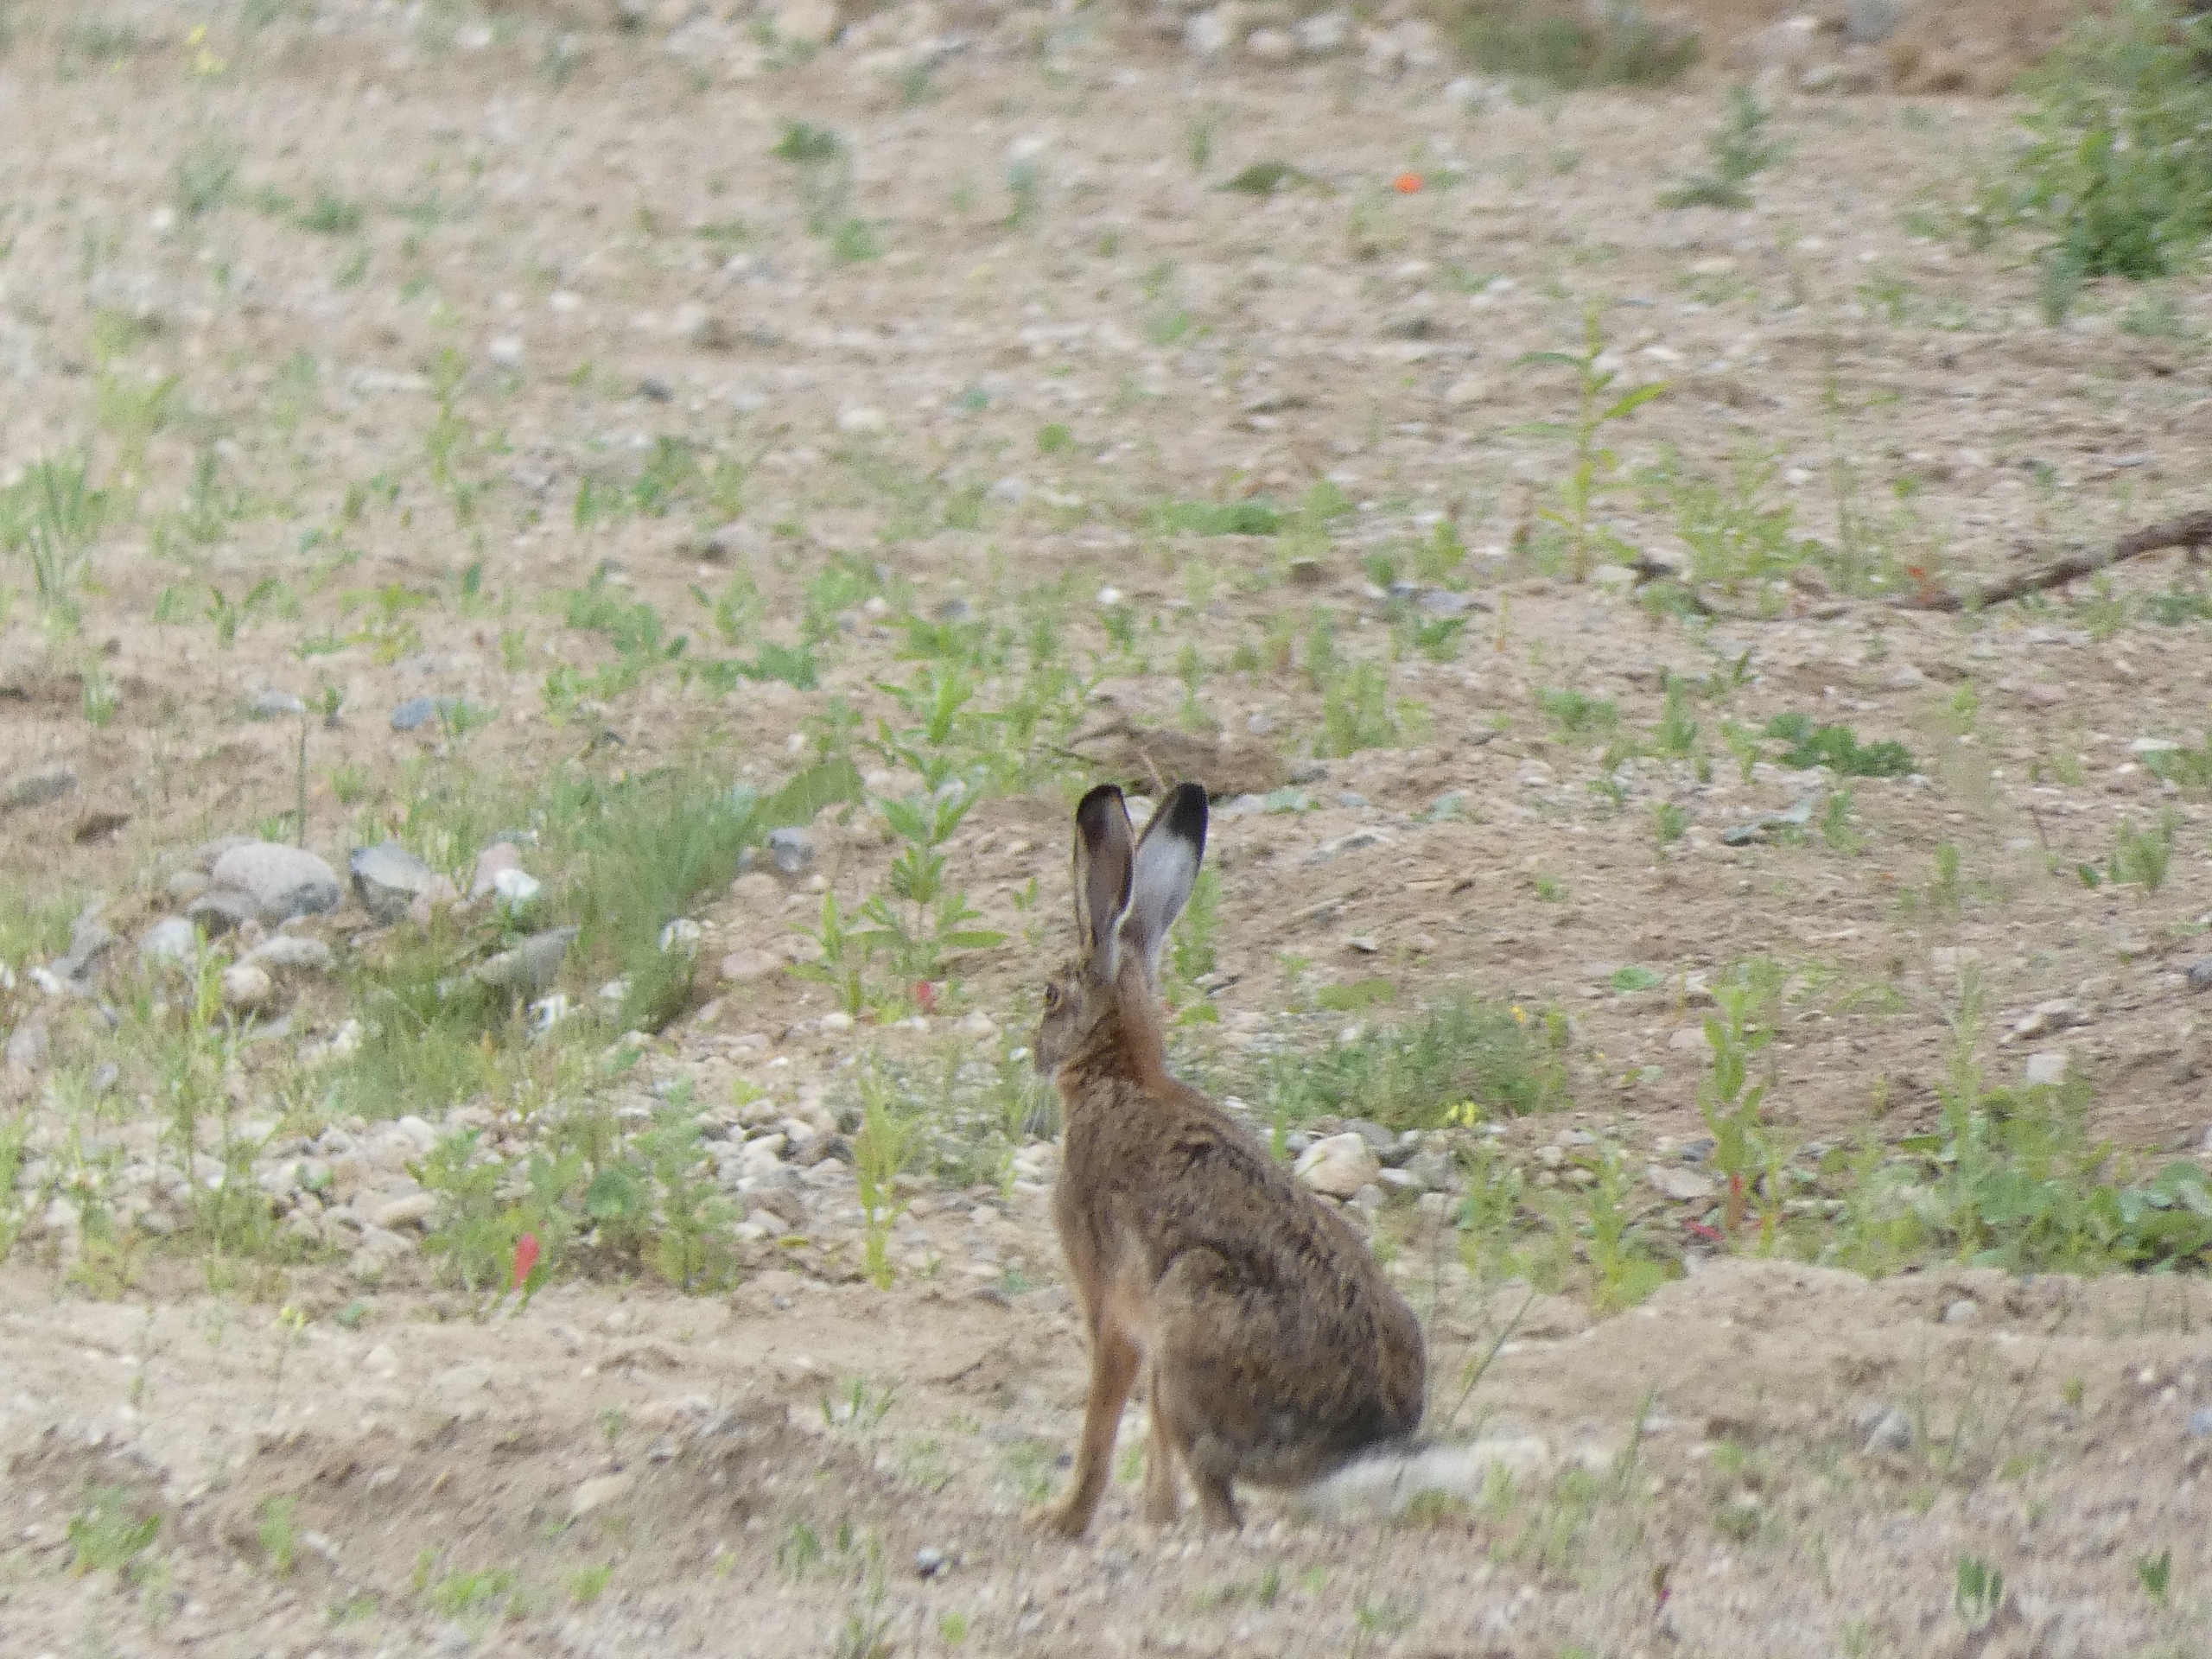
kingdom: Animalia
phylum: Chordata
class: Mammalia
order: Lagomorpha
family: Leporidae
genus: Lepus
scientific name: Lepus europaeus
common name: Hare
